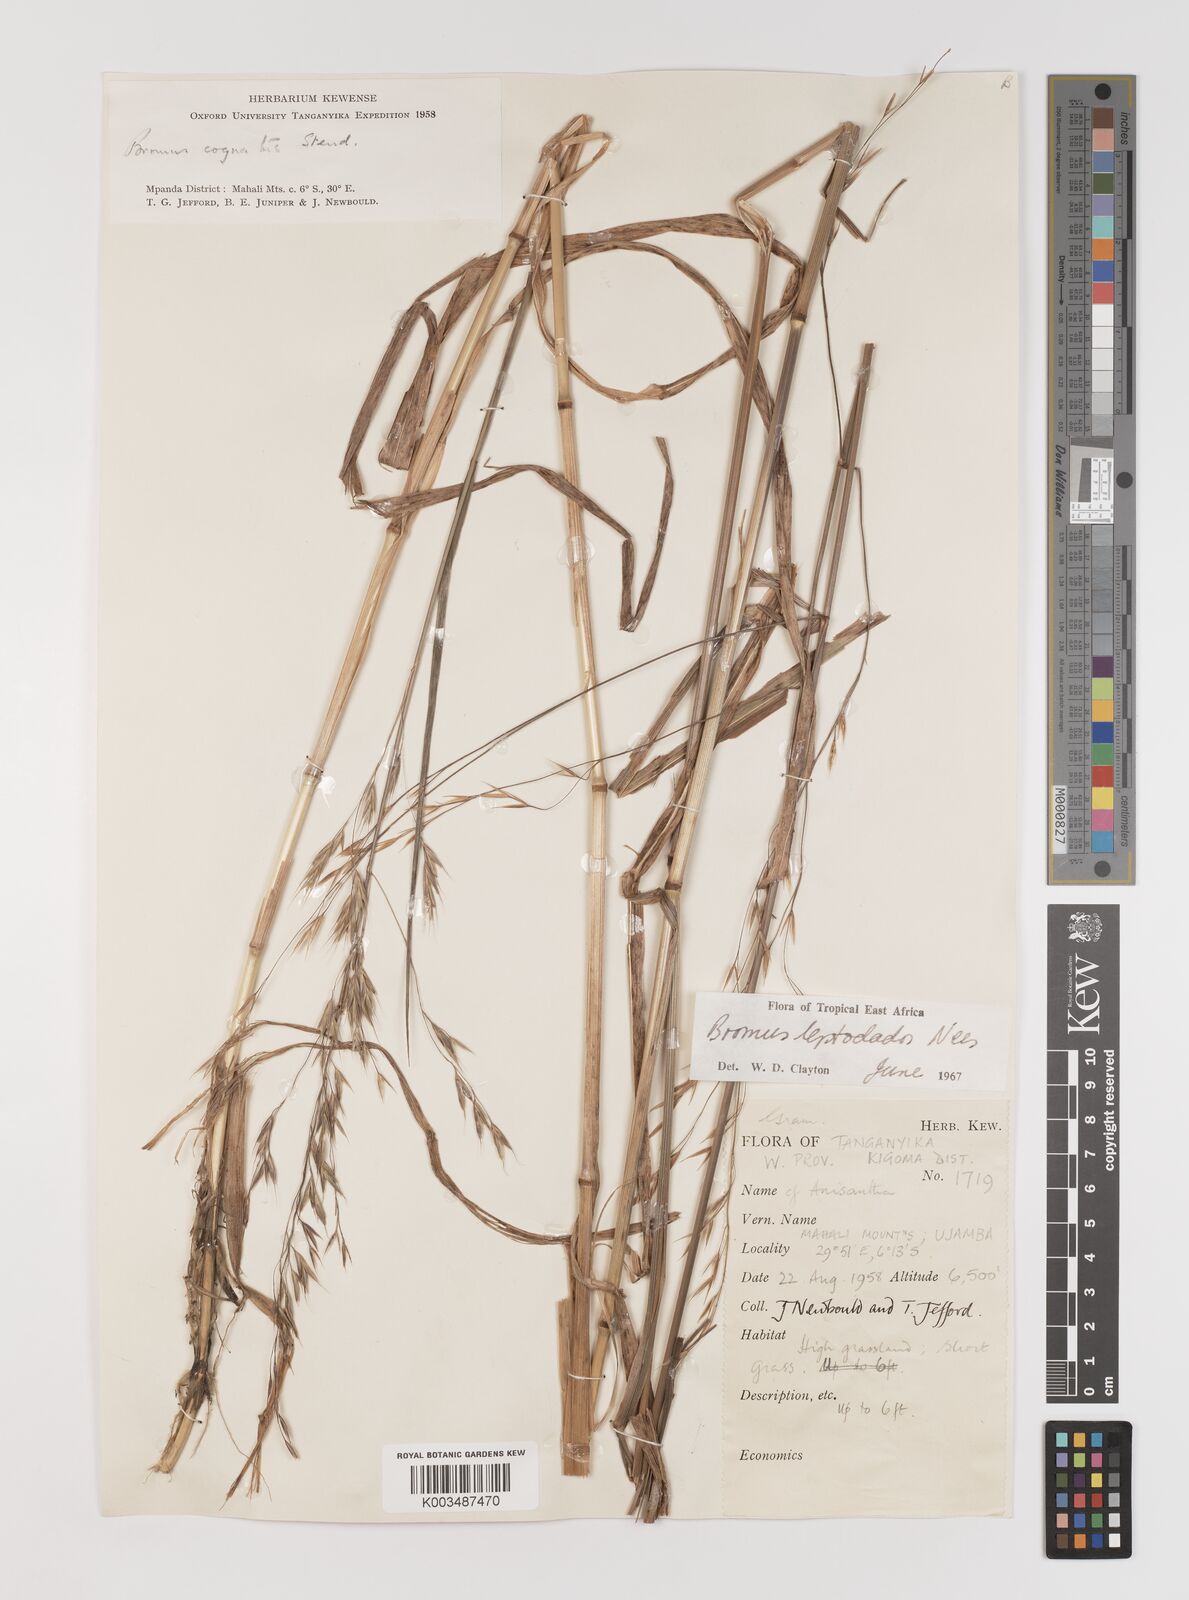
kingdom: Plantae
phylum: Tracheophyta
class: Liliopsida
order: Poales
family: Poaceae
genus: Bromus
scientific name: Bromus leptoclados
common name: Mountain bromegrass
